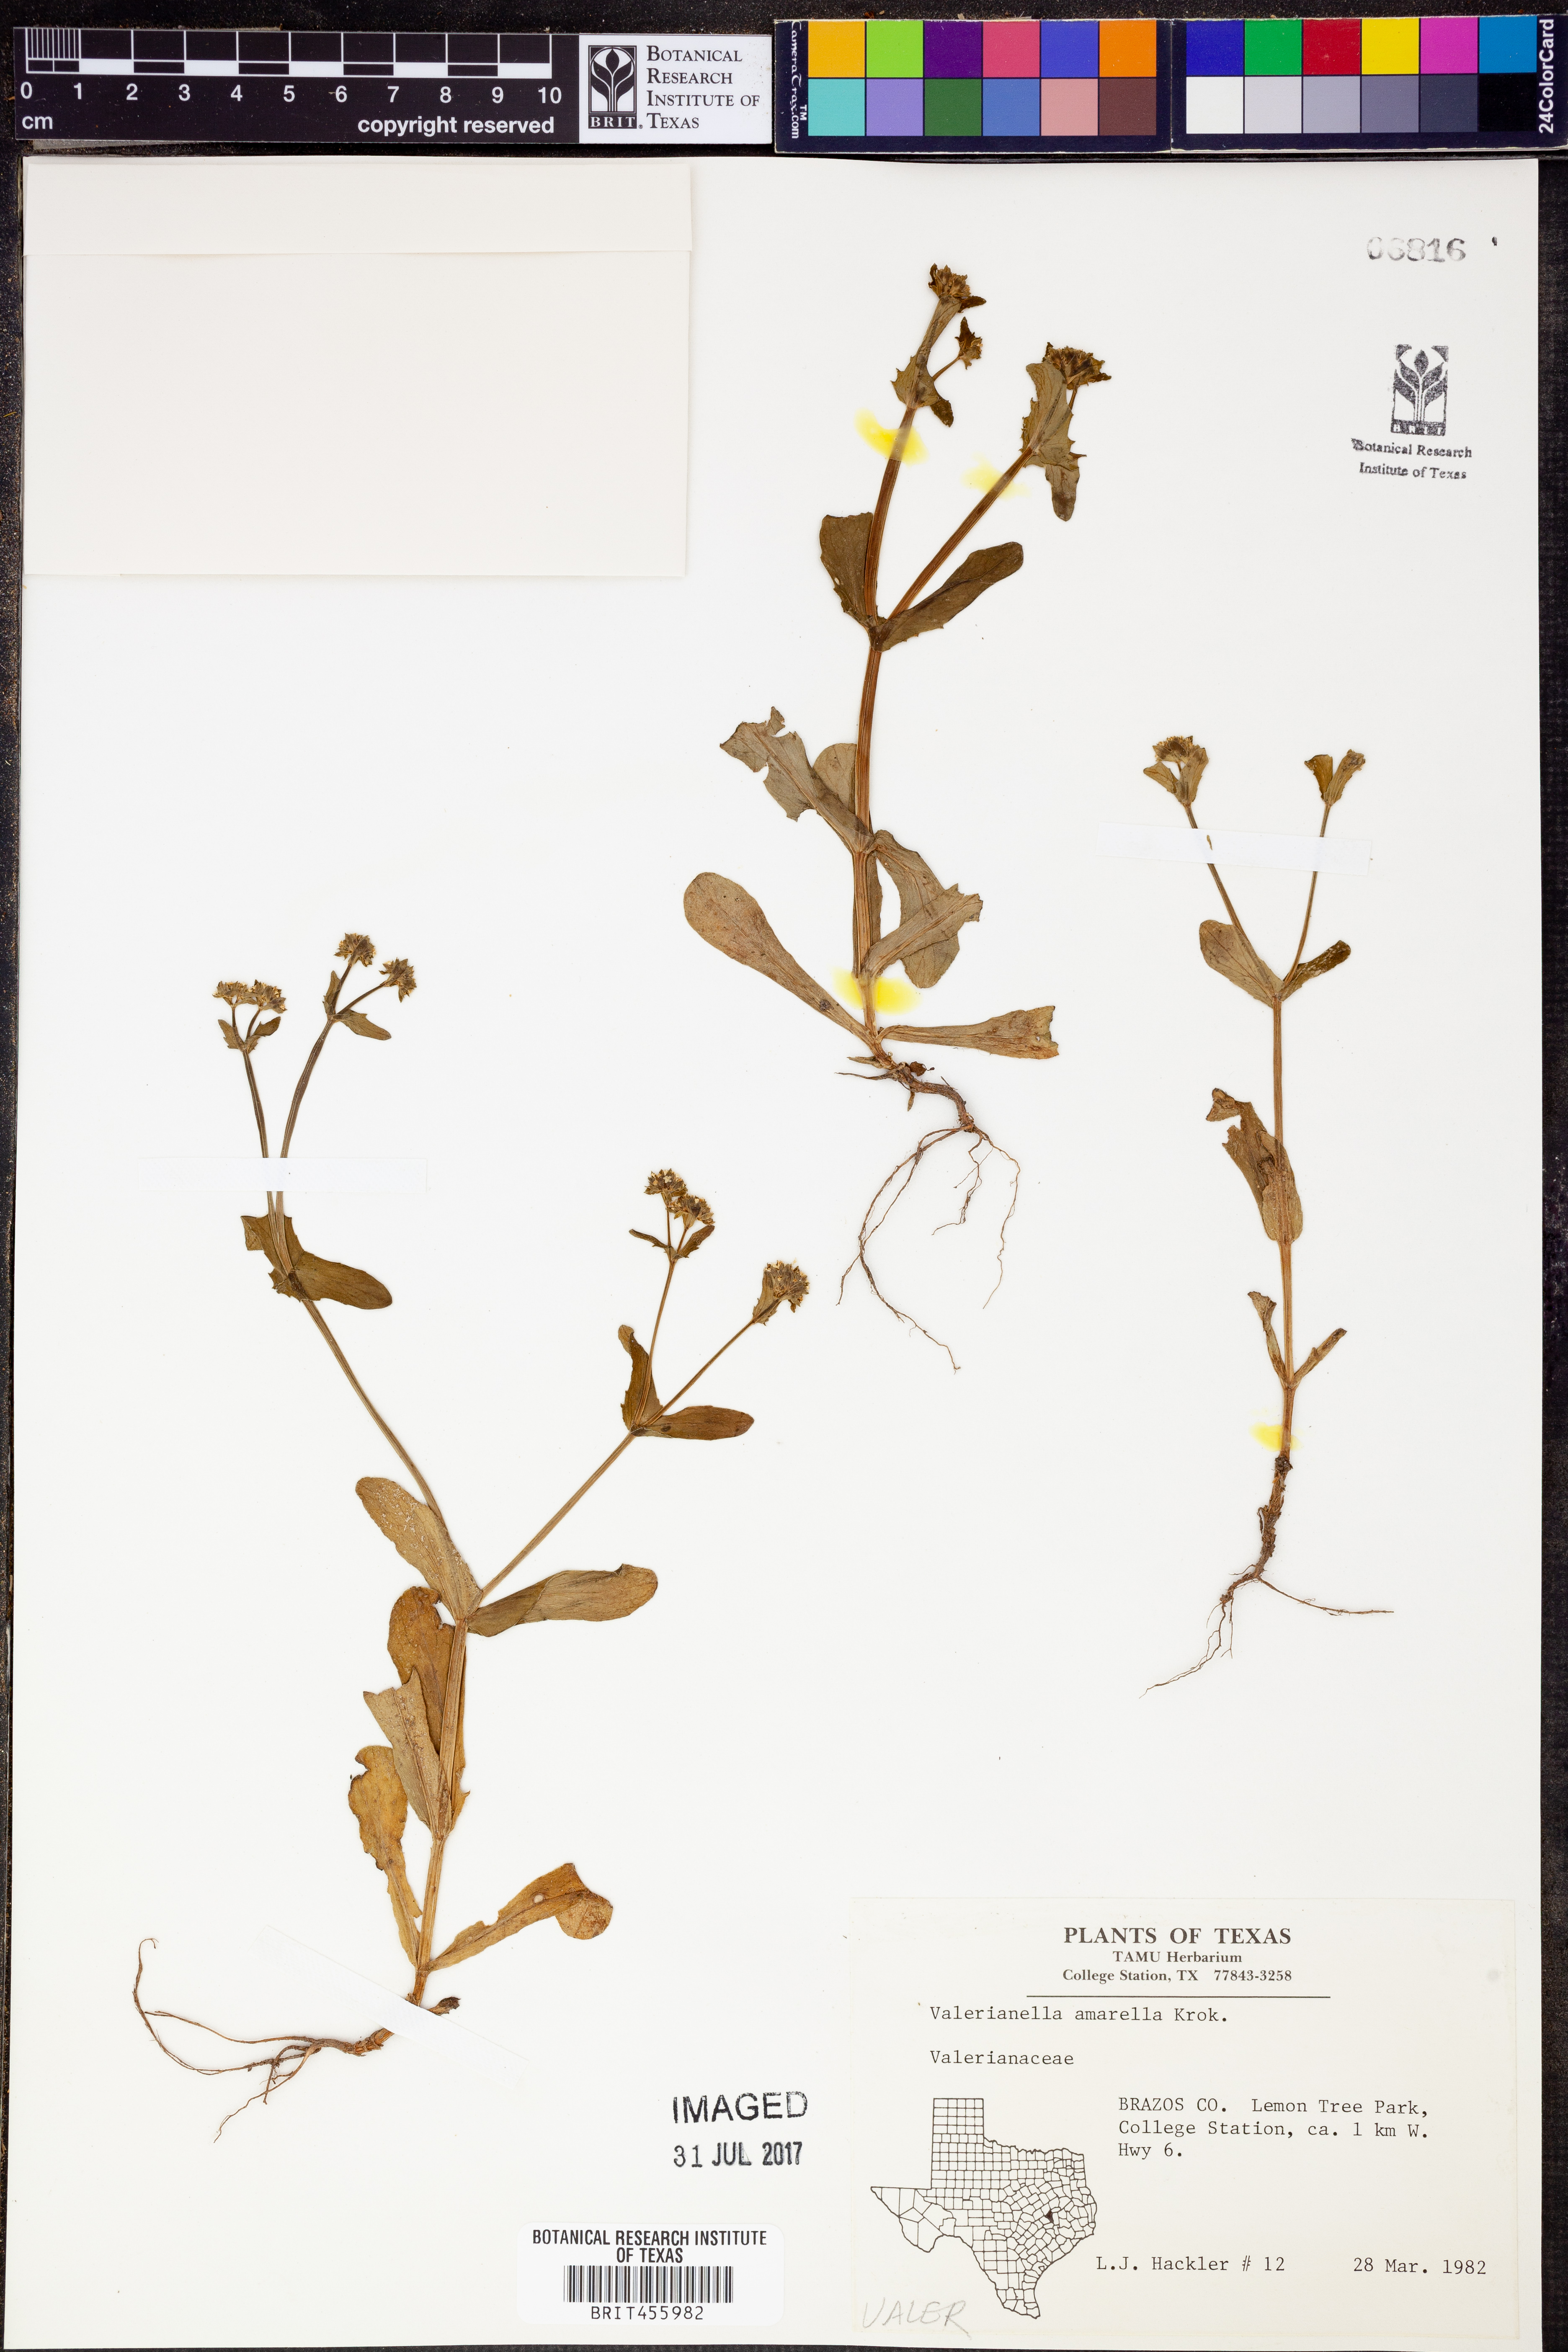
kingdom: Plantae
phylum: Tracheophyta
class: Magnoliopsida
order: Dipsacales
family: Caprifoliaceae
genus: Valerianella
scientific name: Valerianella amarella
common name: Hariy cornsalad
